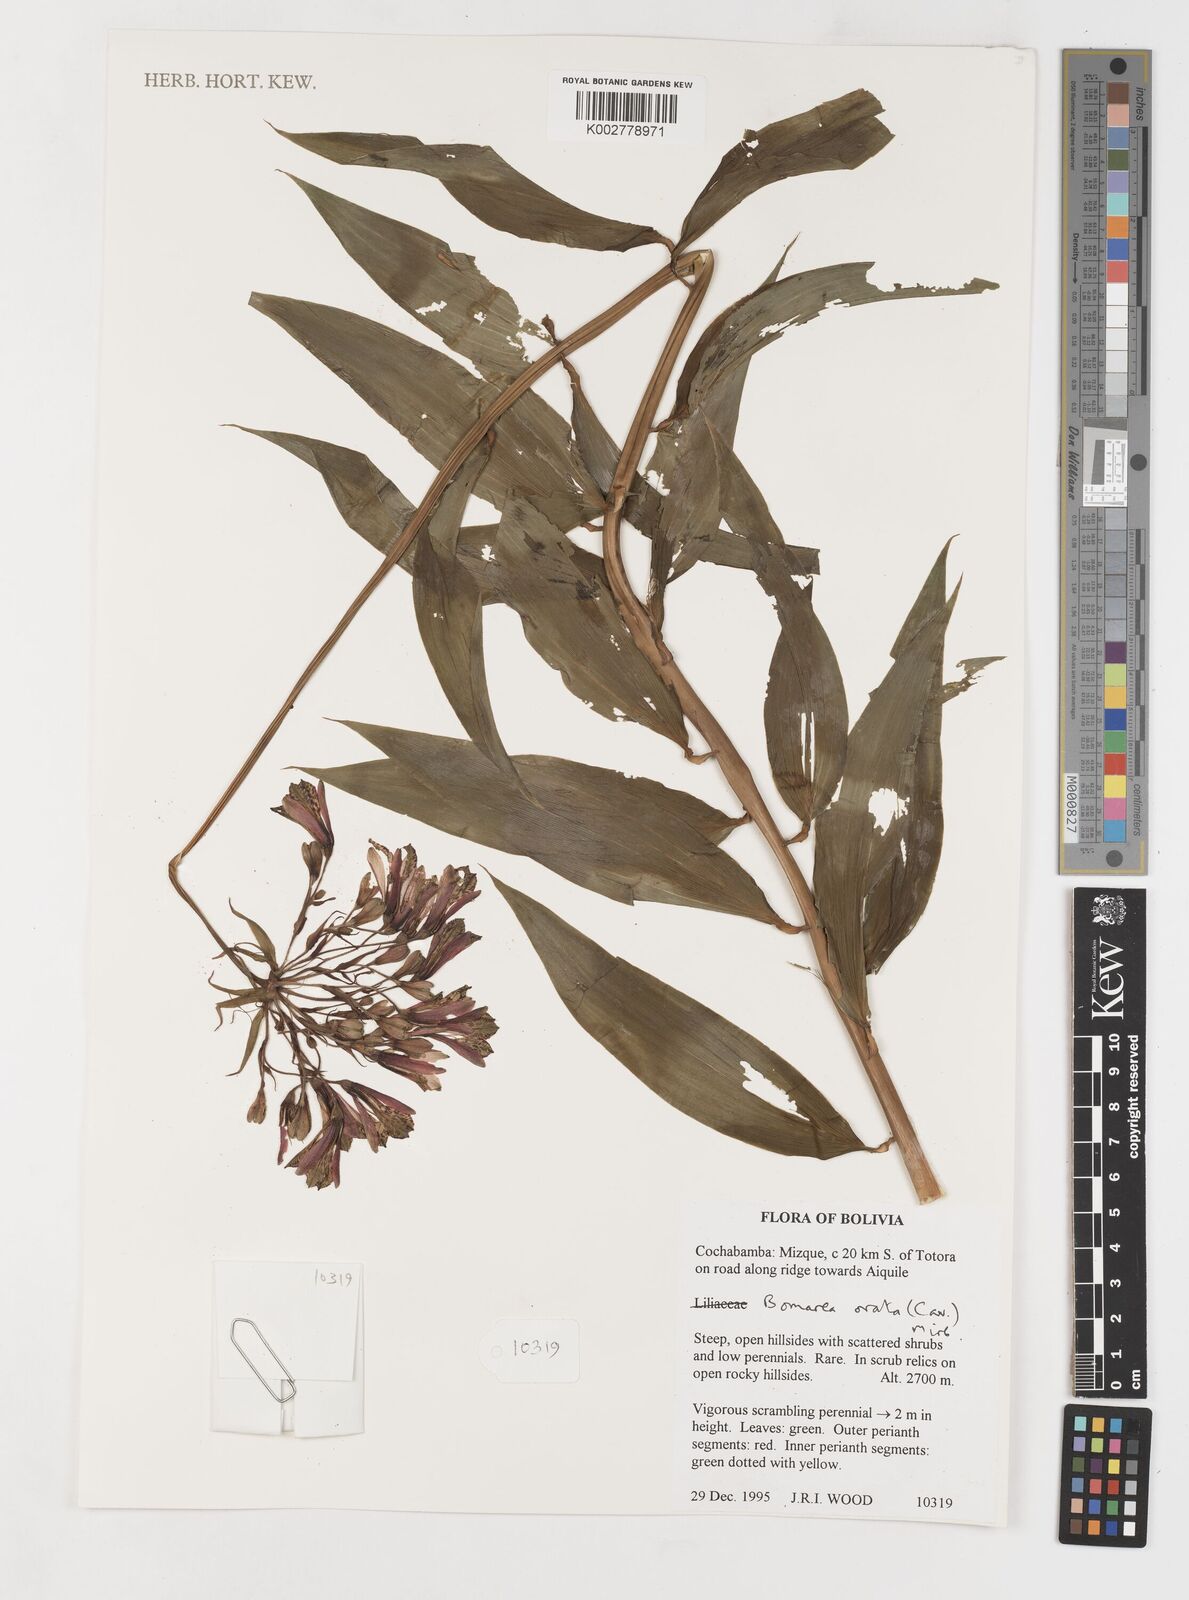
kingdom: Plantae
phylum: Tracheophyta
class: Liliopsida
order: Liliales
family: Alstroemeriaceae
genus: Bomarea
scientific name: Bomarea ovata
